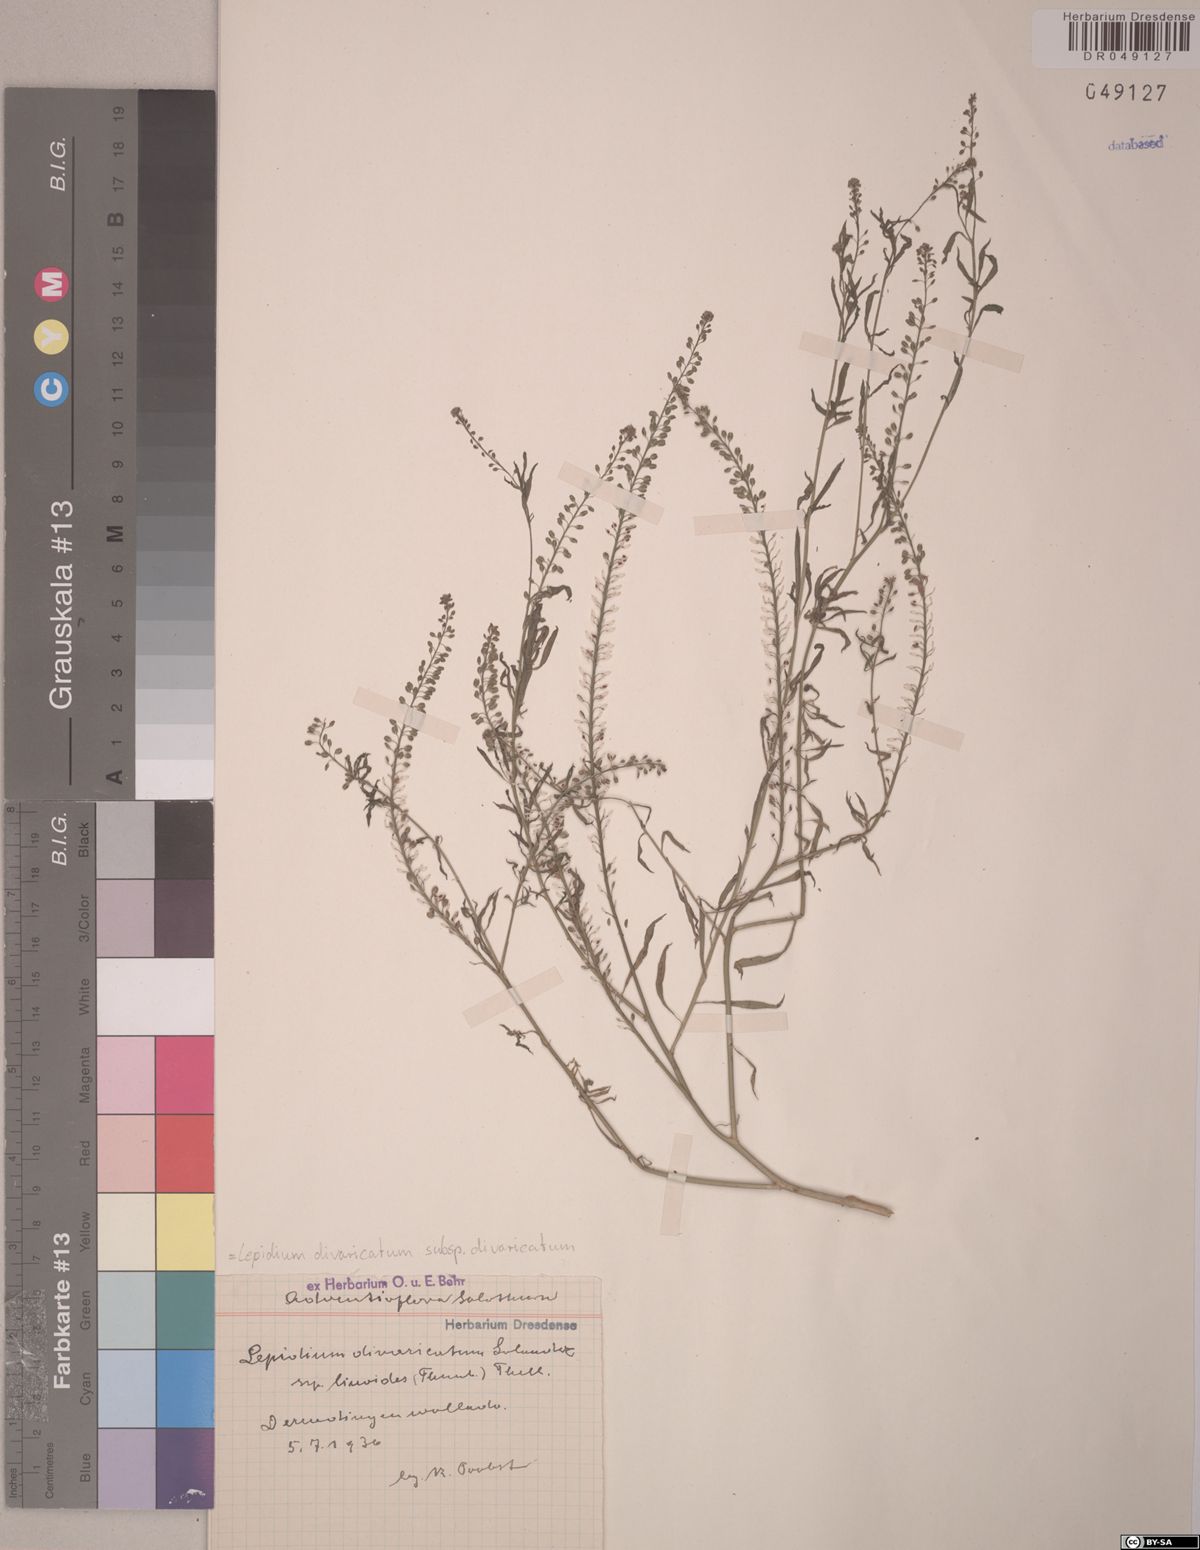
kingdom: Plantae
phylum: Tracheophyta
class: Magnoliopsida
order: Brassicales
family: Brassicaceae
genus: Lepidium
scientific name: Lepidium divaricatum
